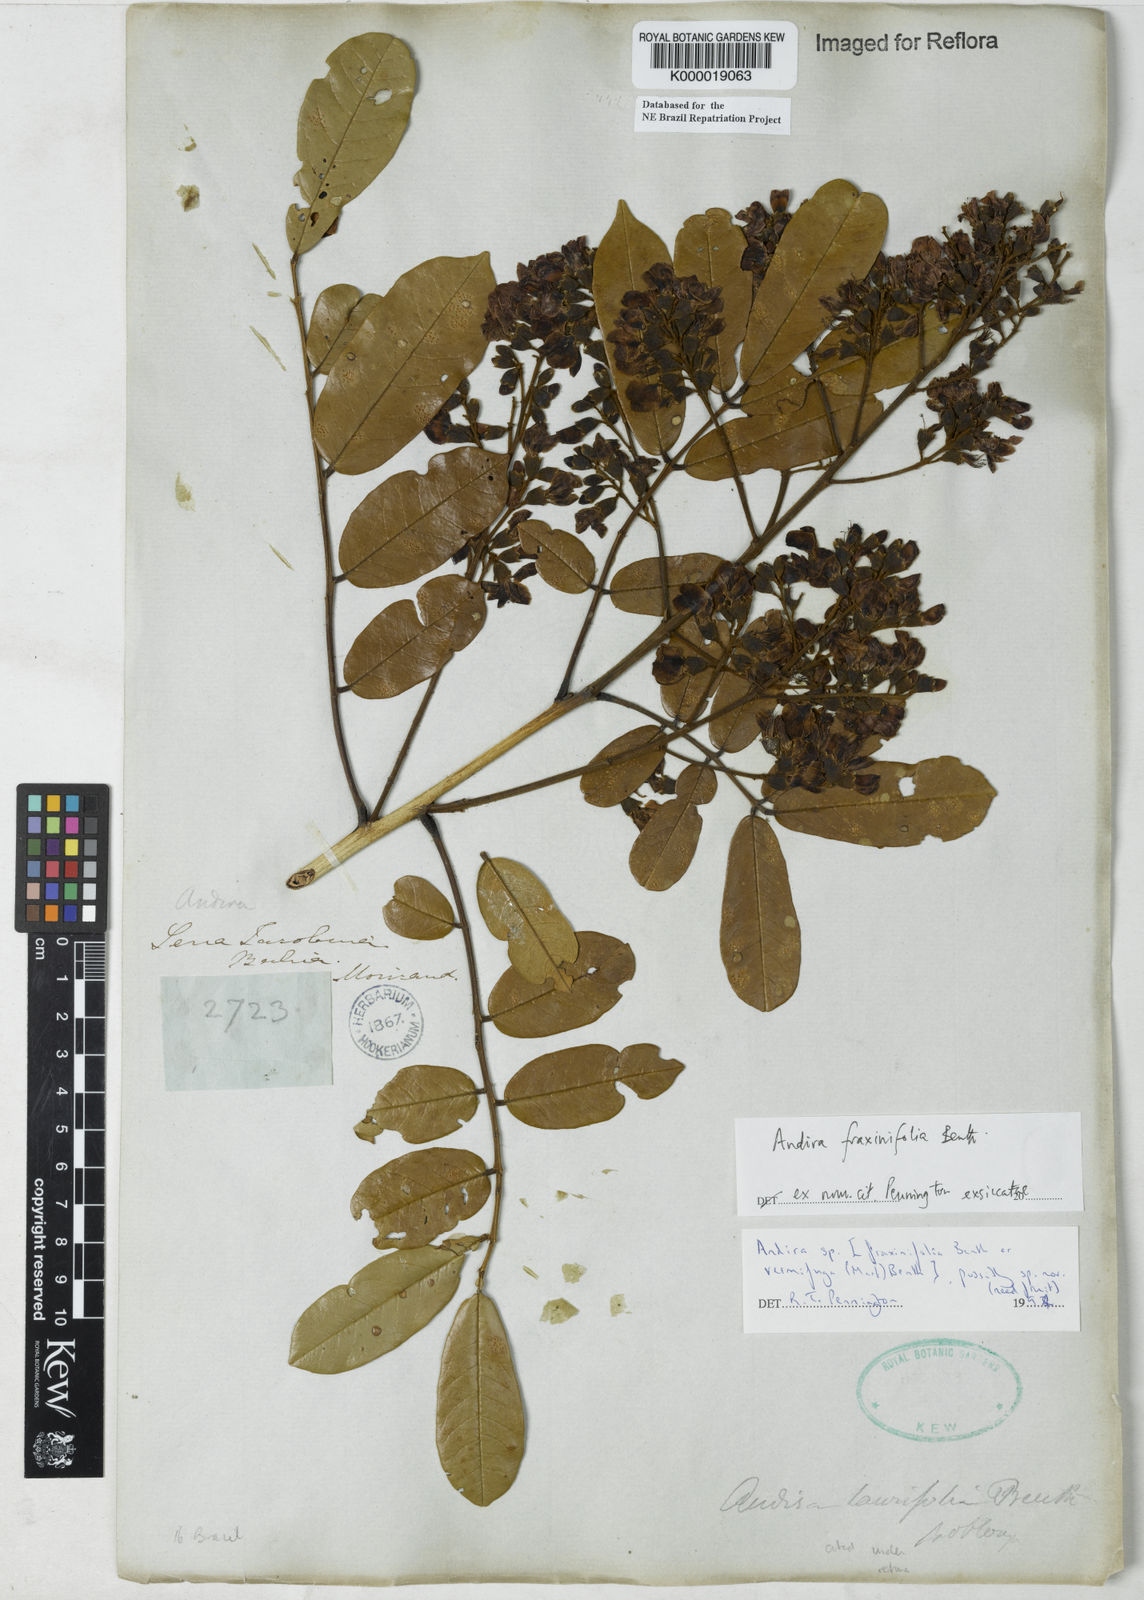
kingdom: Plantae
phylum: Tracheophyta
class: Magnoliopsida
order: Fabales
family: Fabaceae
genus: Andira
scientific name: Andira fraxinifolia
